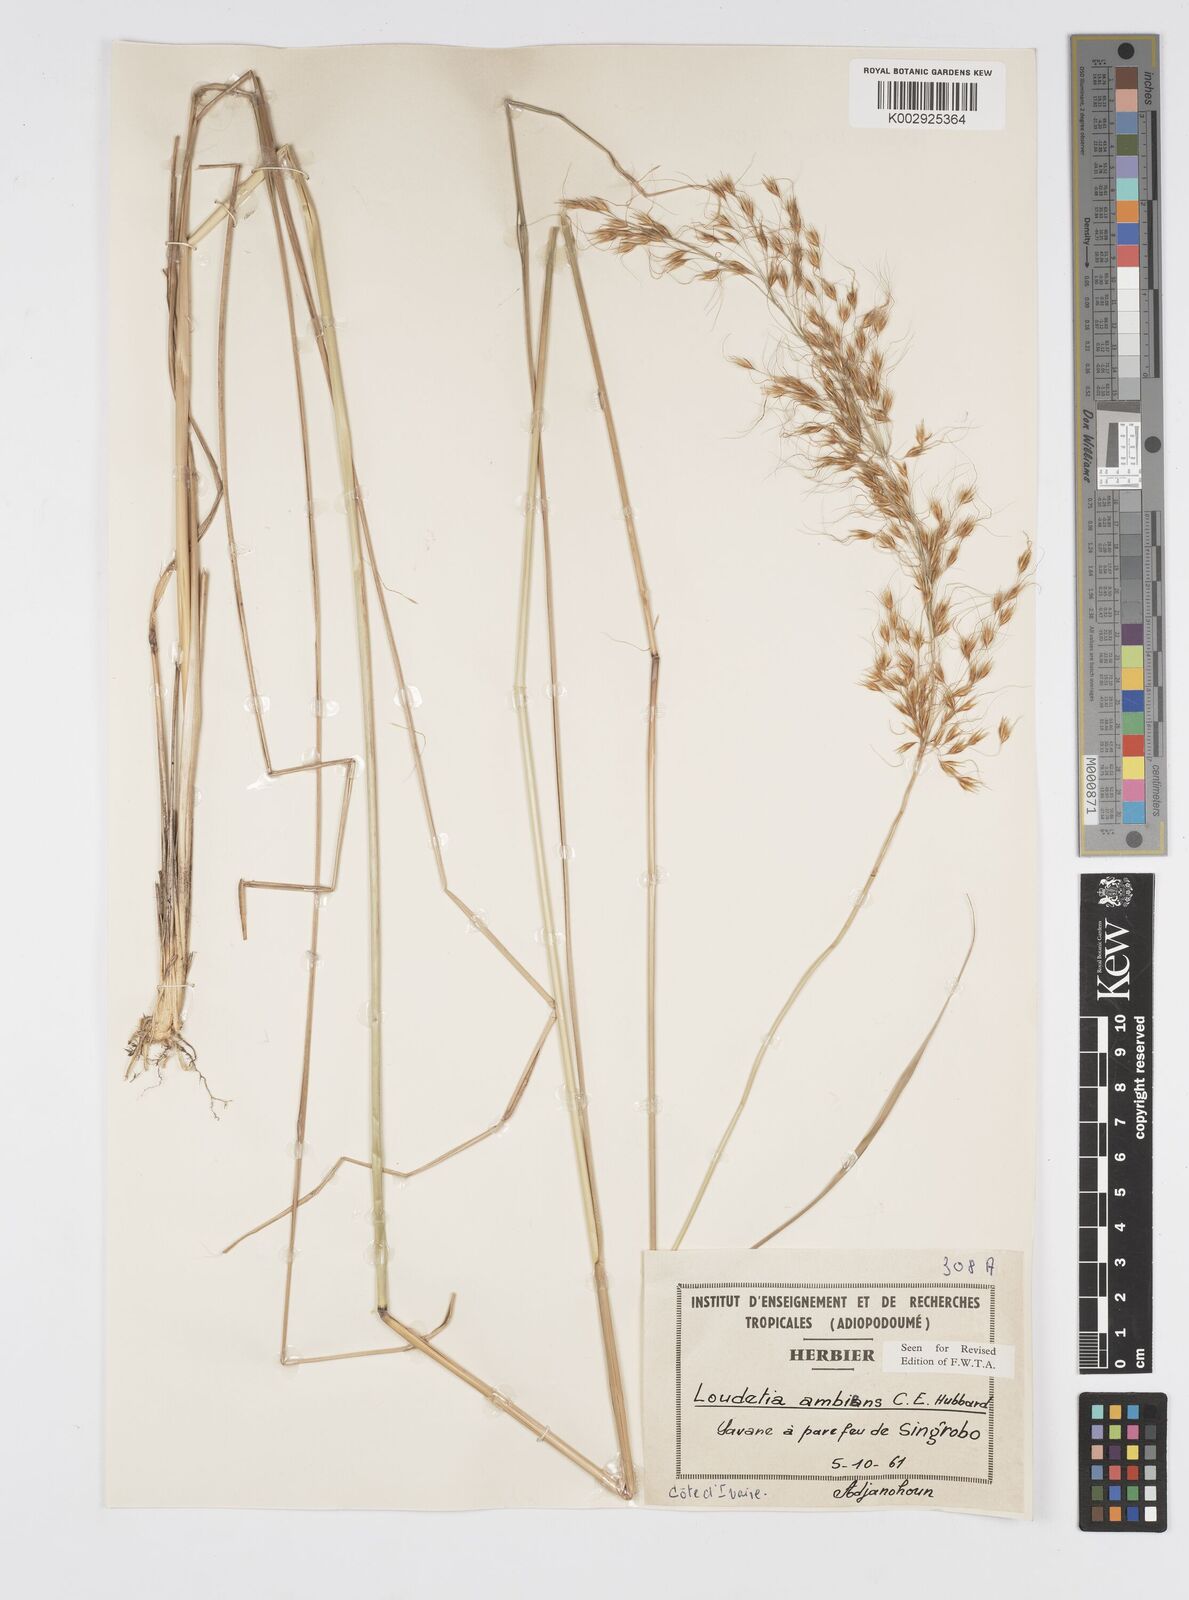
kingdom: Plantae
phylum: Tracheophyta
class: Liliopsida
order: Poales
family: Poaceae
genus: Loudetiopsis
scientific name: Loudetiopsis ambiens
